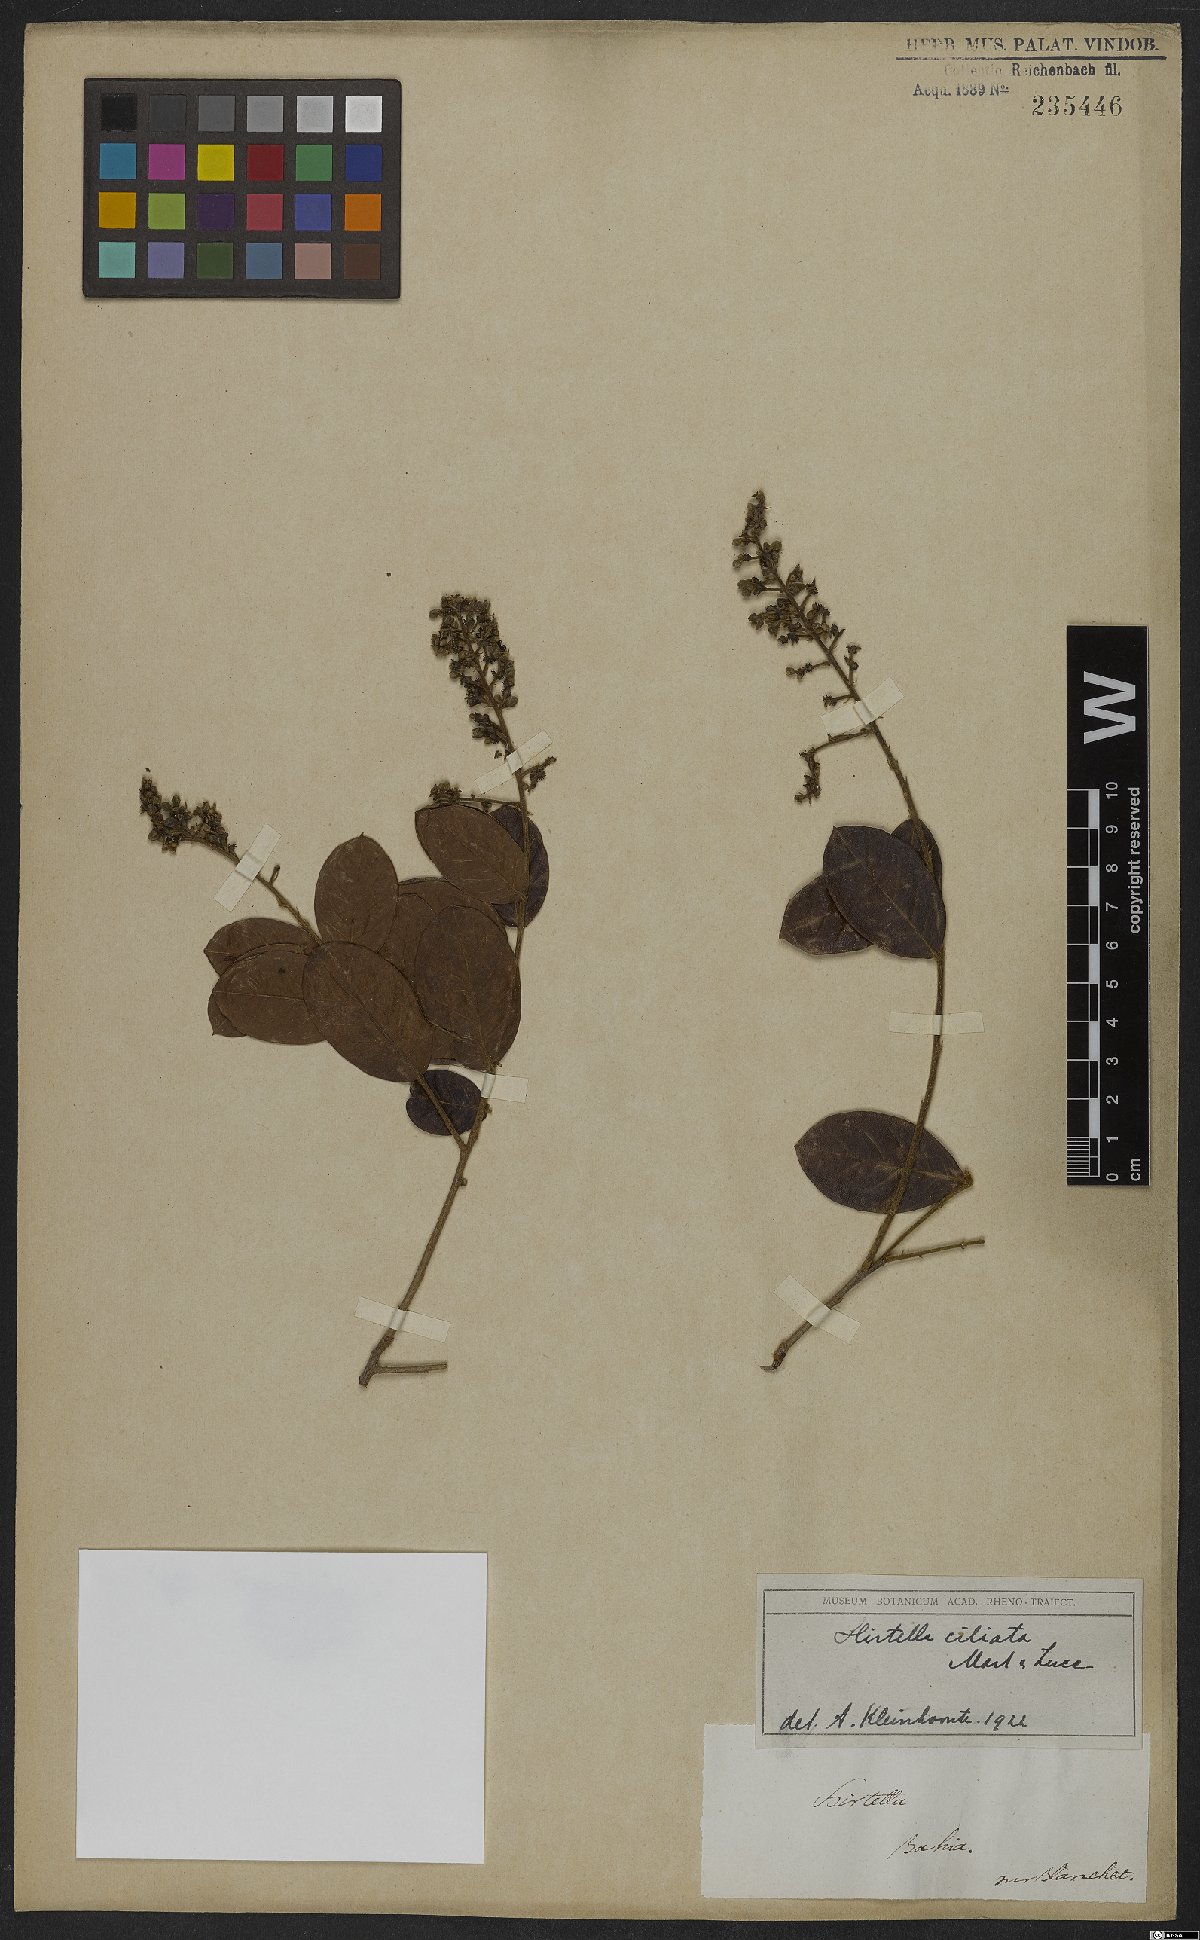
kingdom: Plantae
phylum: Tracheophyta
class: Magnoliopsida
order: Malpighiales
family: Chrysobalanaceae
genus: Hirtella
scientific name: Hirtella ciliata
